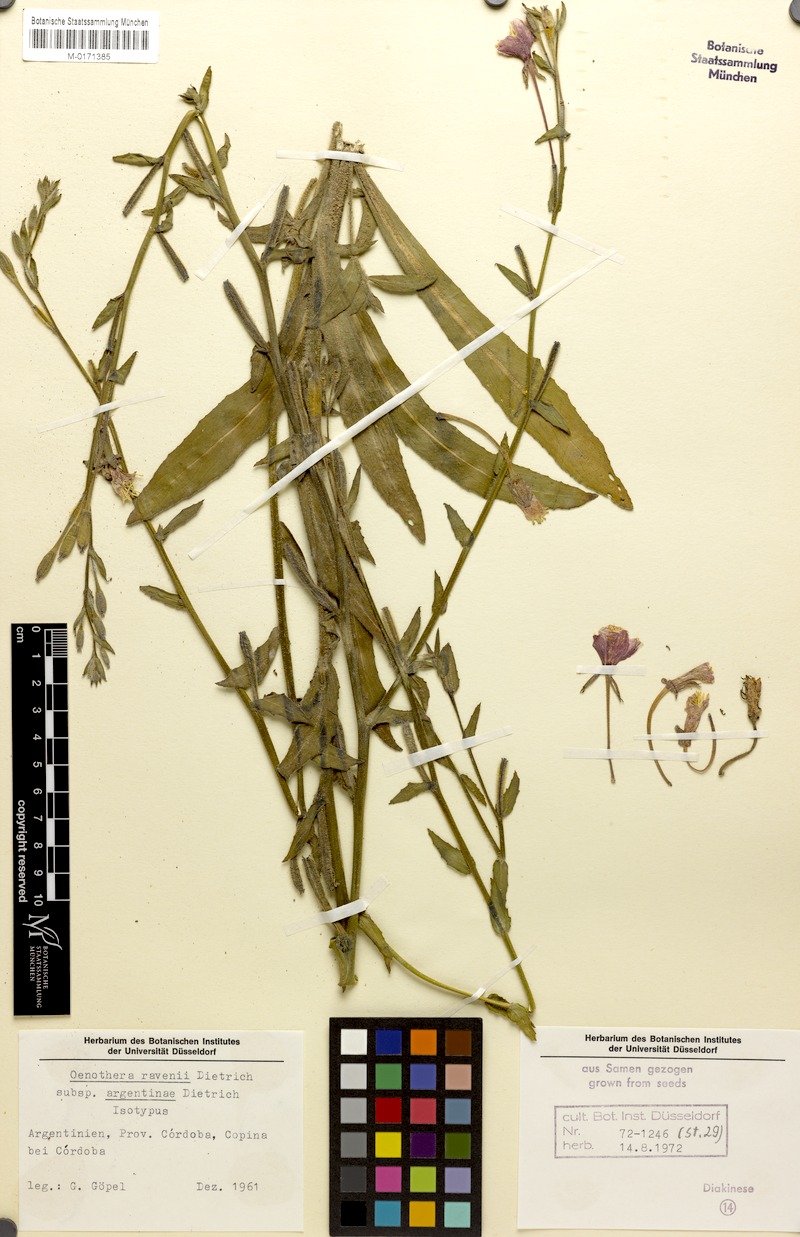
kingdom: Plantae
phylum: Tracheophyta
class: Magnoliopsida
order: Myrtales
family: Onagraceae
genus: Oenothera
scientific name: Oenothera parodiana
